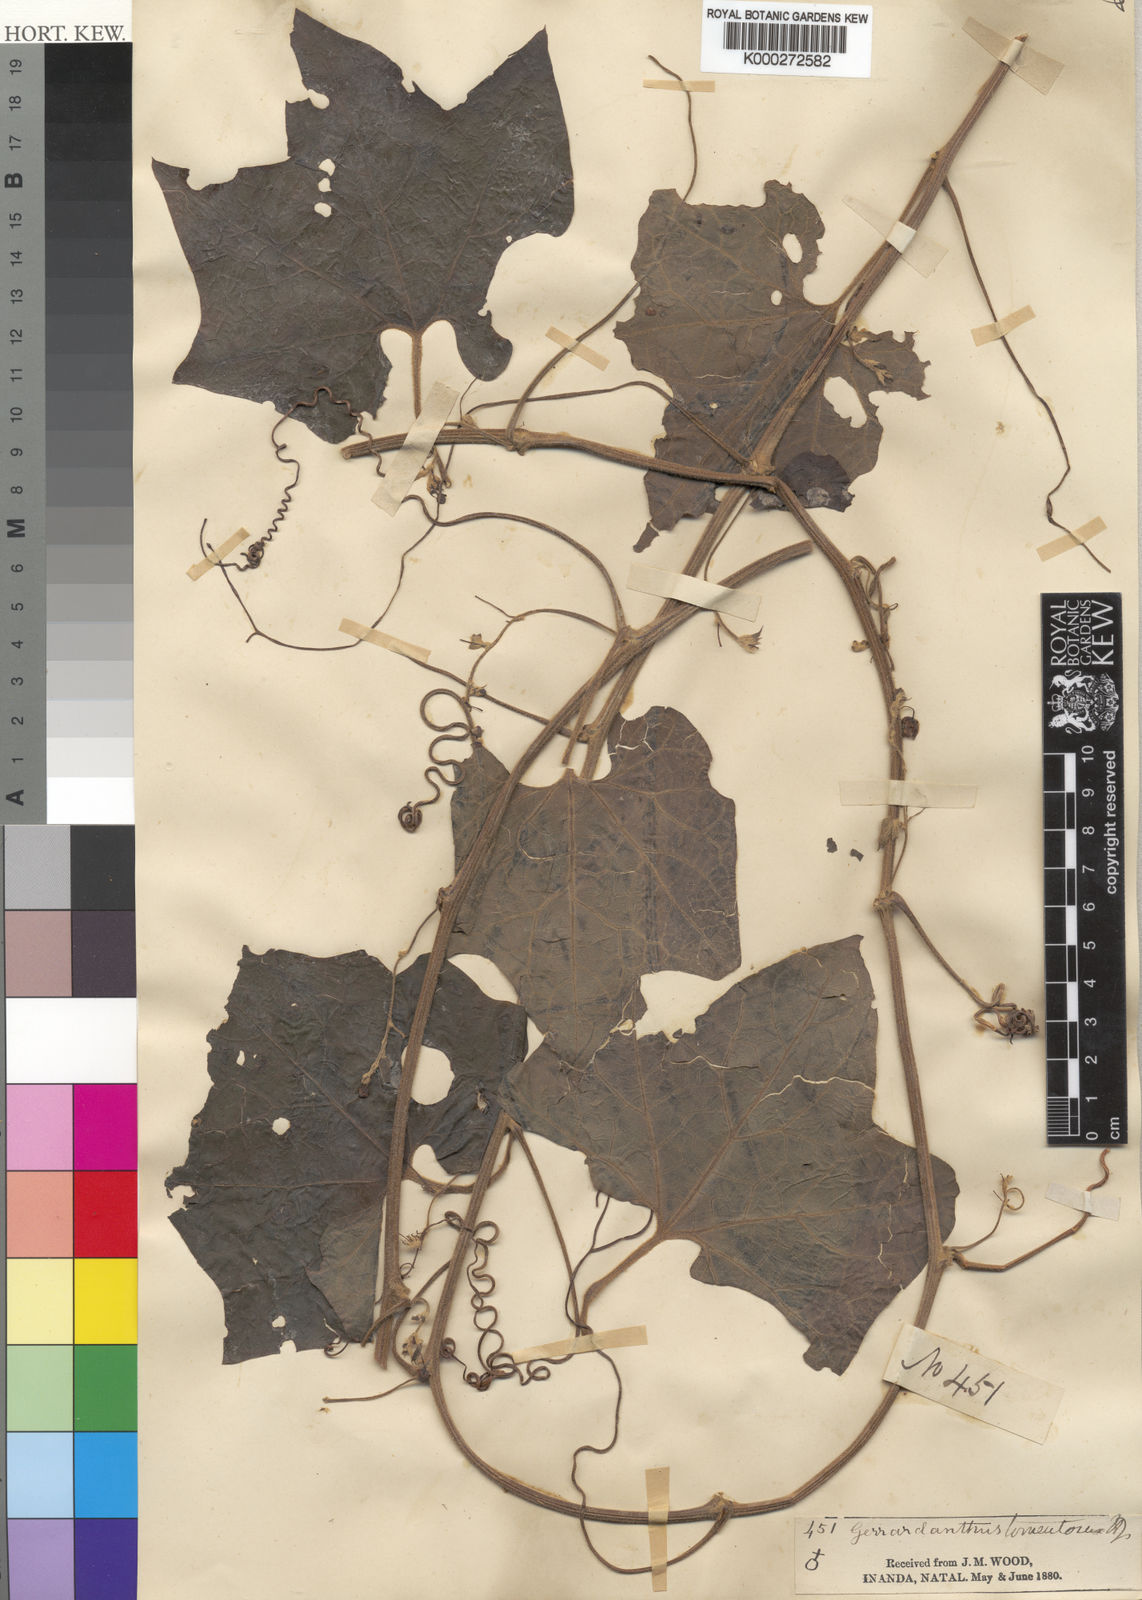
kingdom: Plantae
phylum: Tracheophyta
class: Magnoliopsida
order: Cucurbitales
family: Cucurbitaceae
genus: Gerrardanthus
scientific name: Gerrardanthus tomentosus
